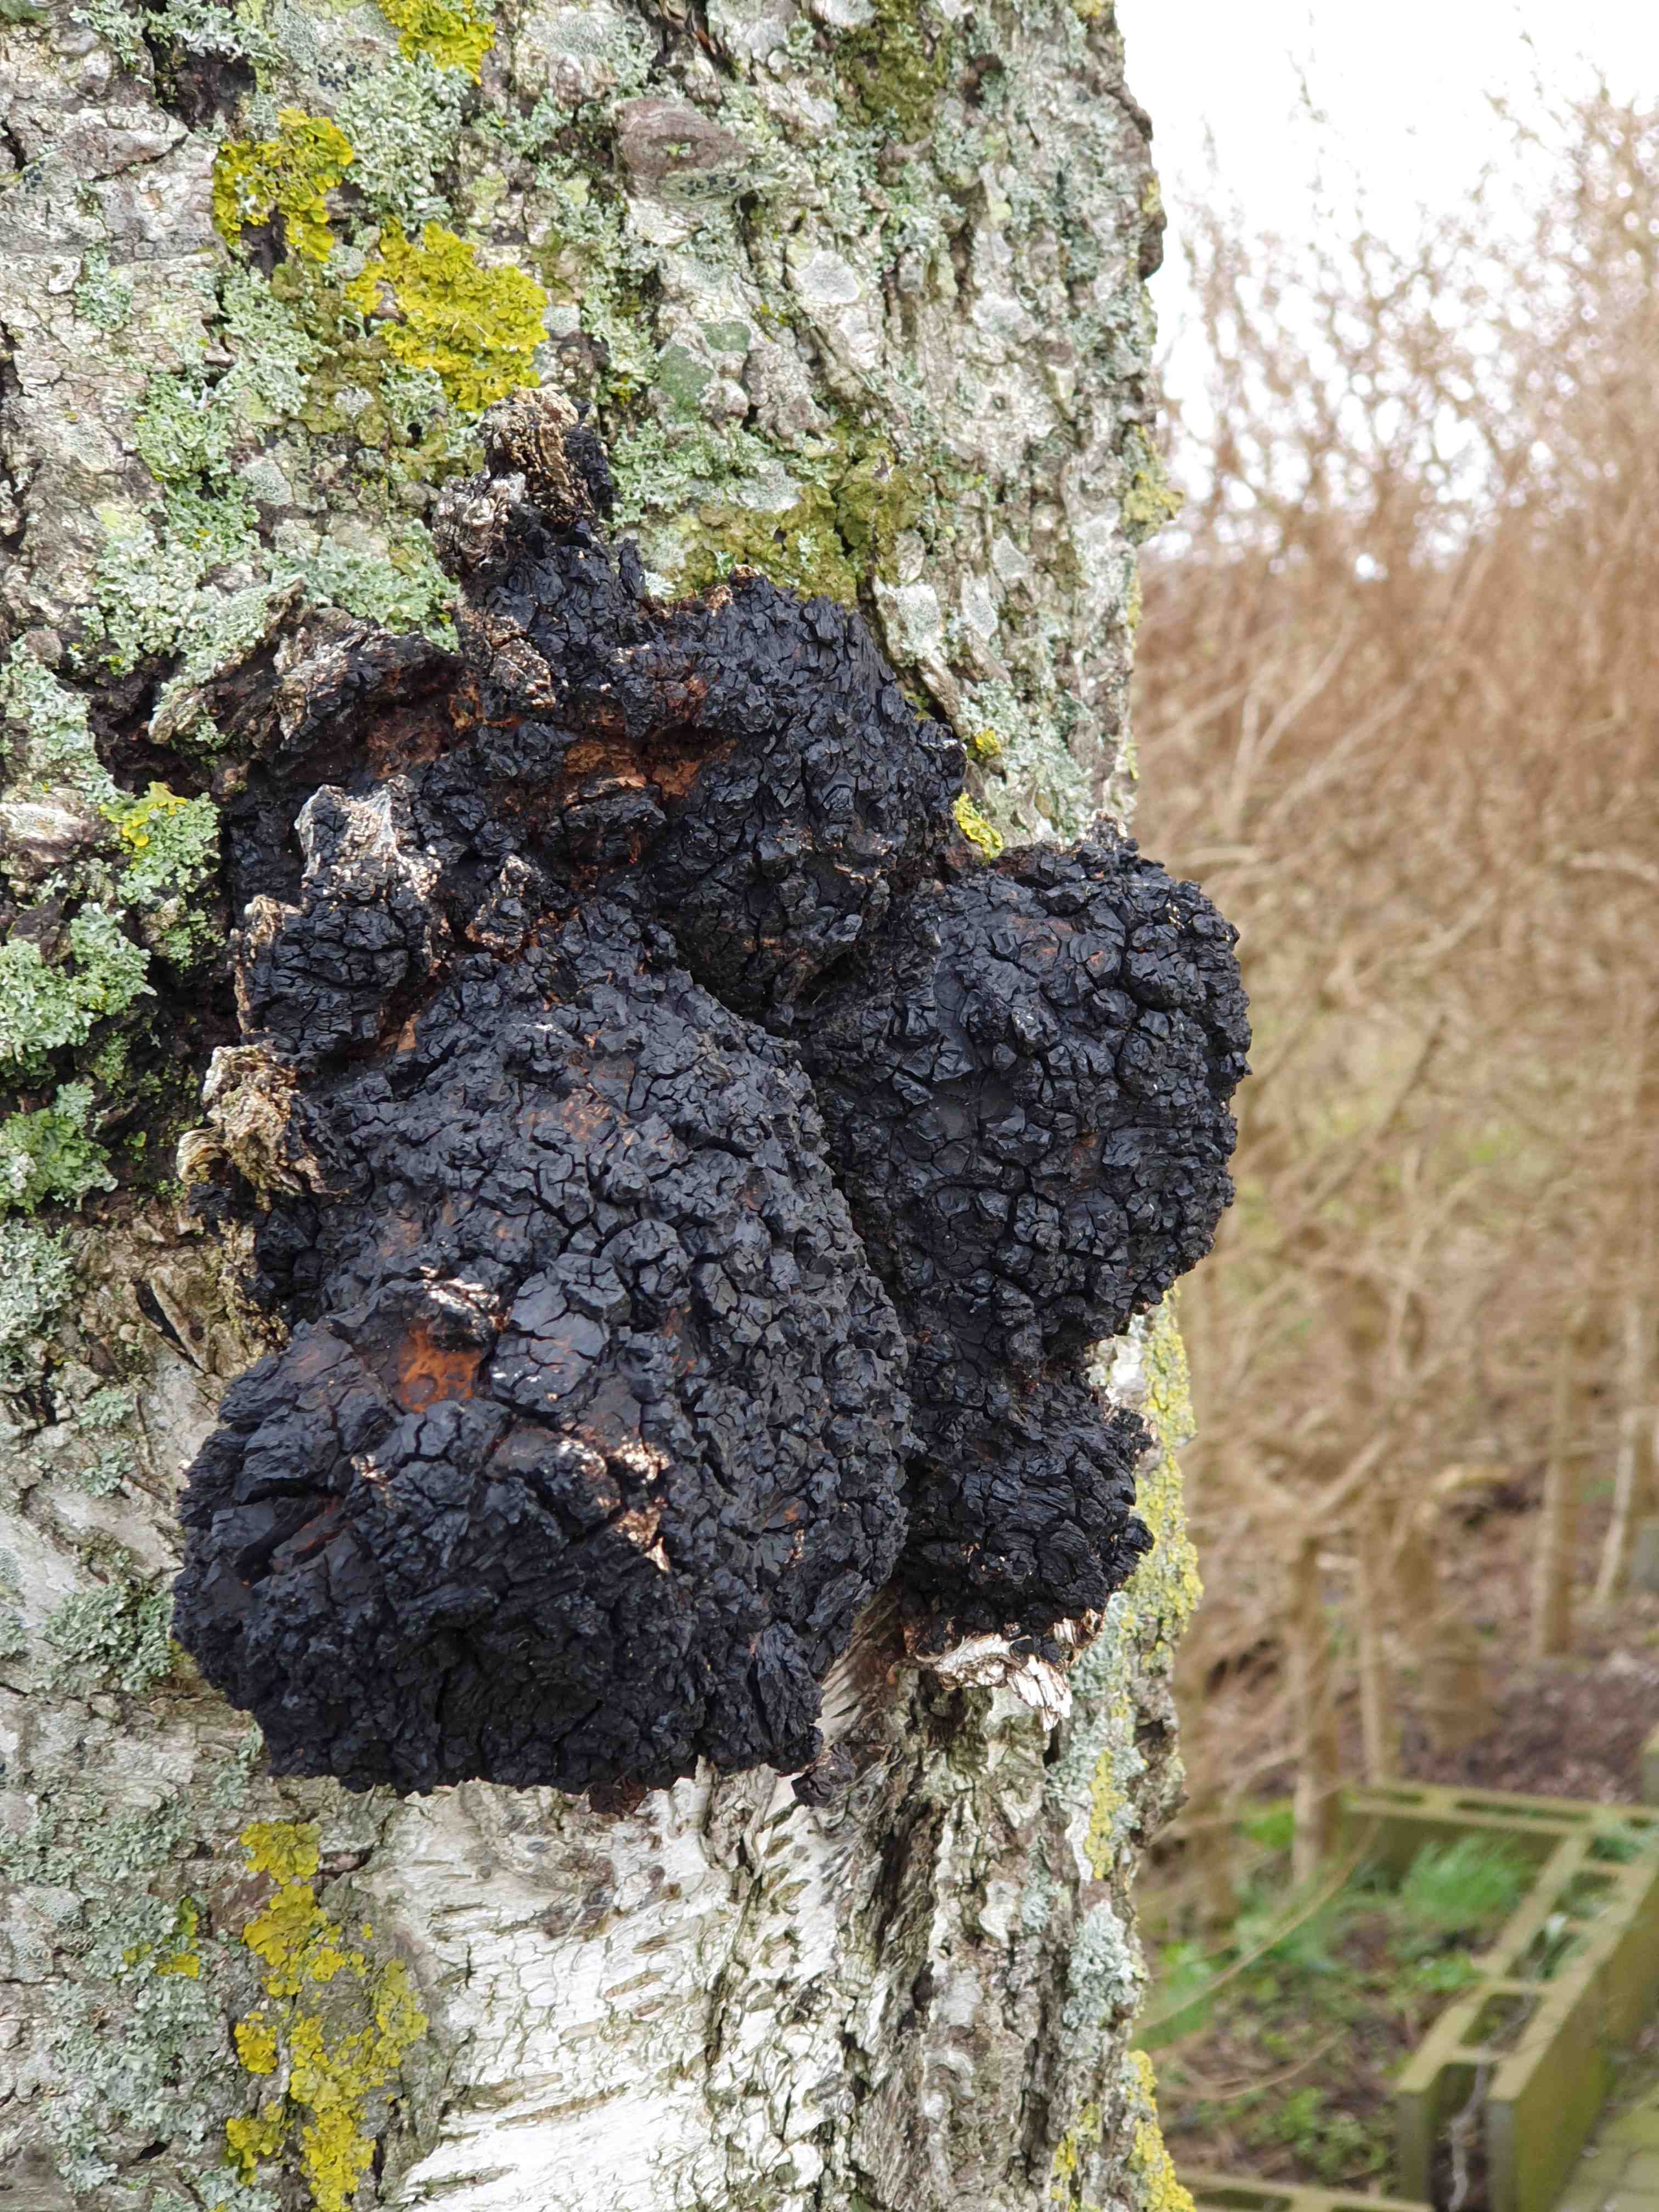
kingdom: Fungi
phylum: Basidiomycota
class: Agaricomycetes
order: Hymenochaetales
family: Hymenochaetaceae
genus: Inonotus
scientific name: Inonotus obliquus
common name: birke-spejlporesvamp
